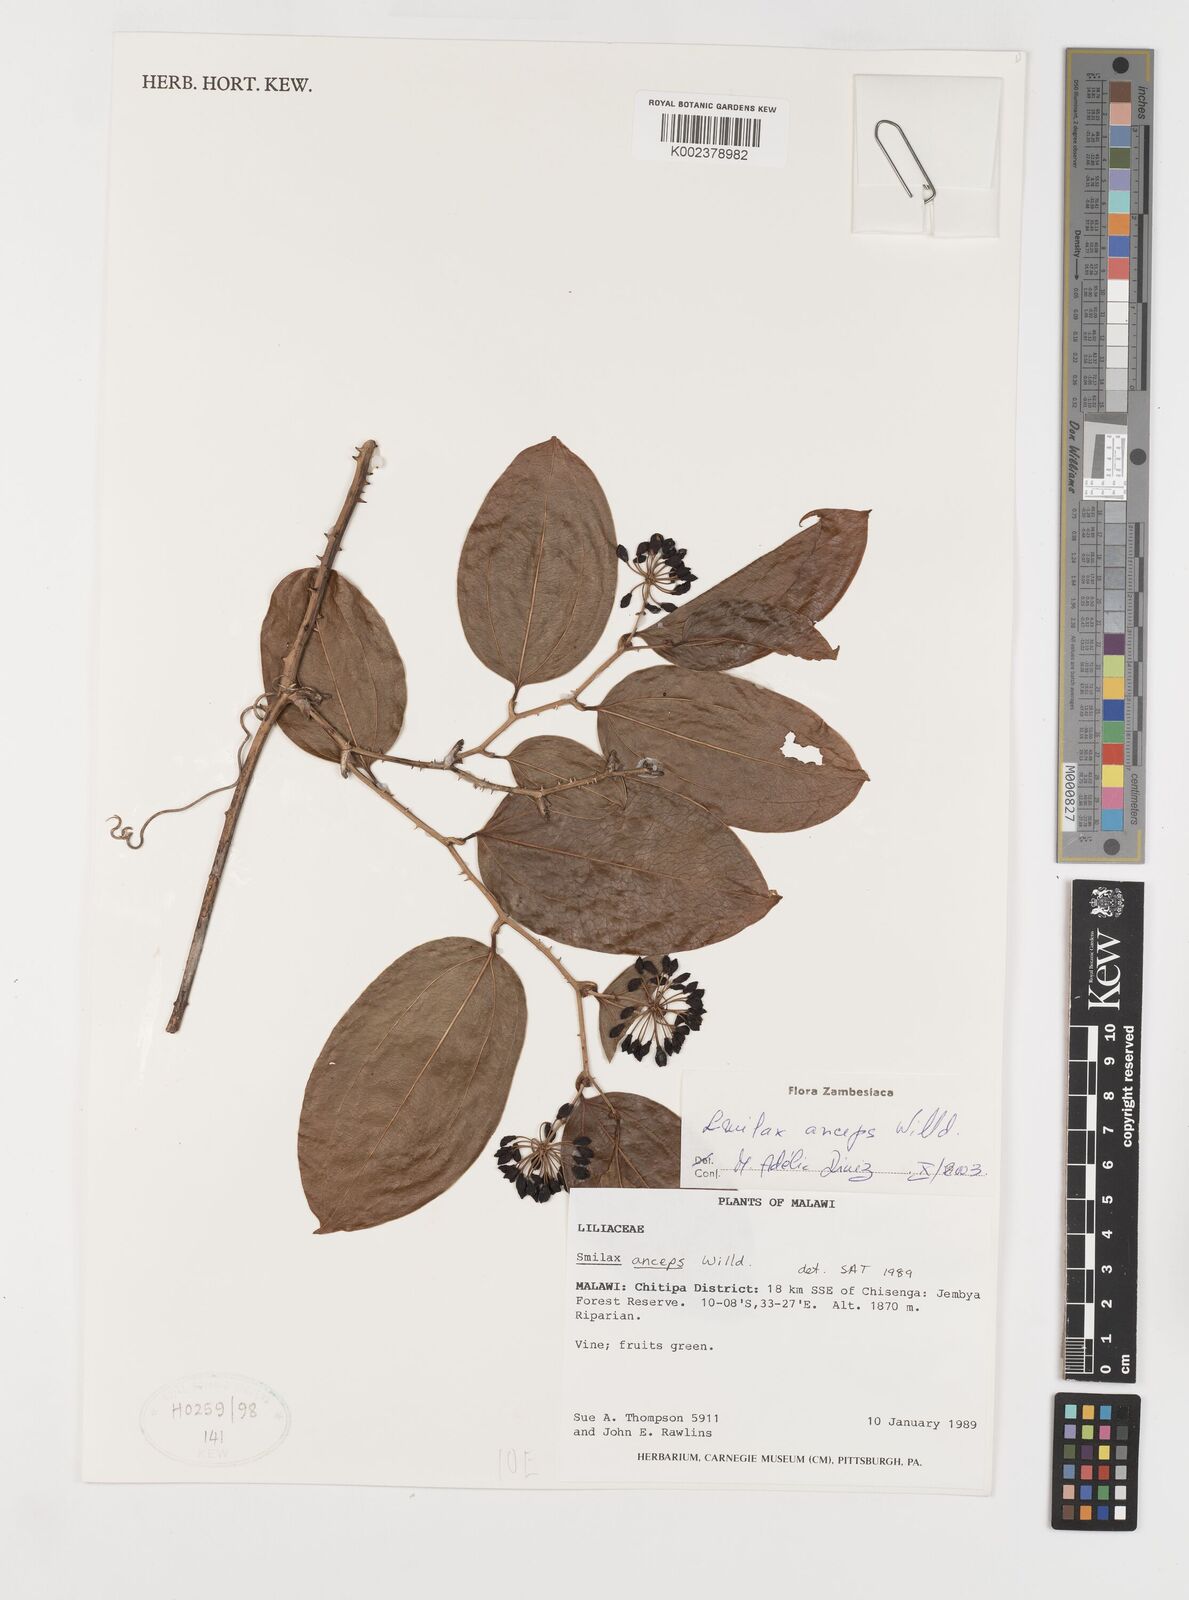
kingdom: Plantae
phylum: Tracheophyta
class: Liliopsida
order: Liliales
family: Smilacaceae
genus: Smilax
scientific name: Smilax anceps
